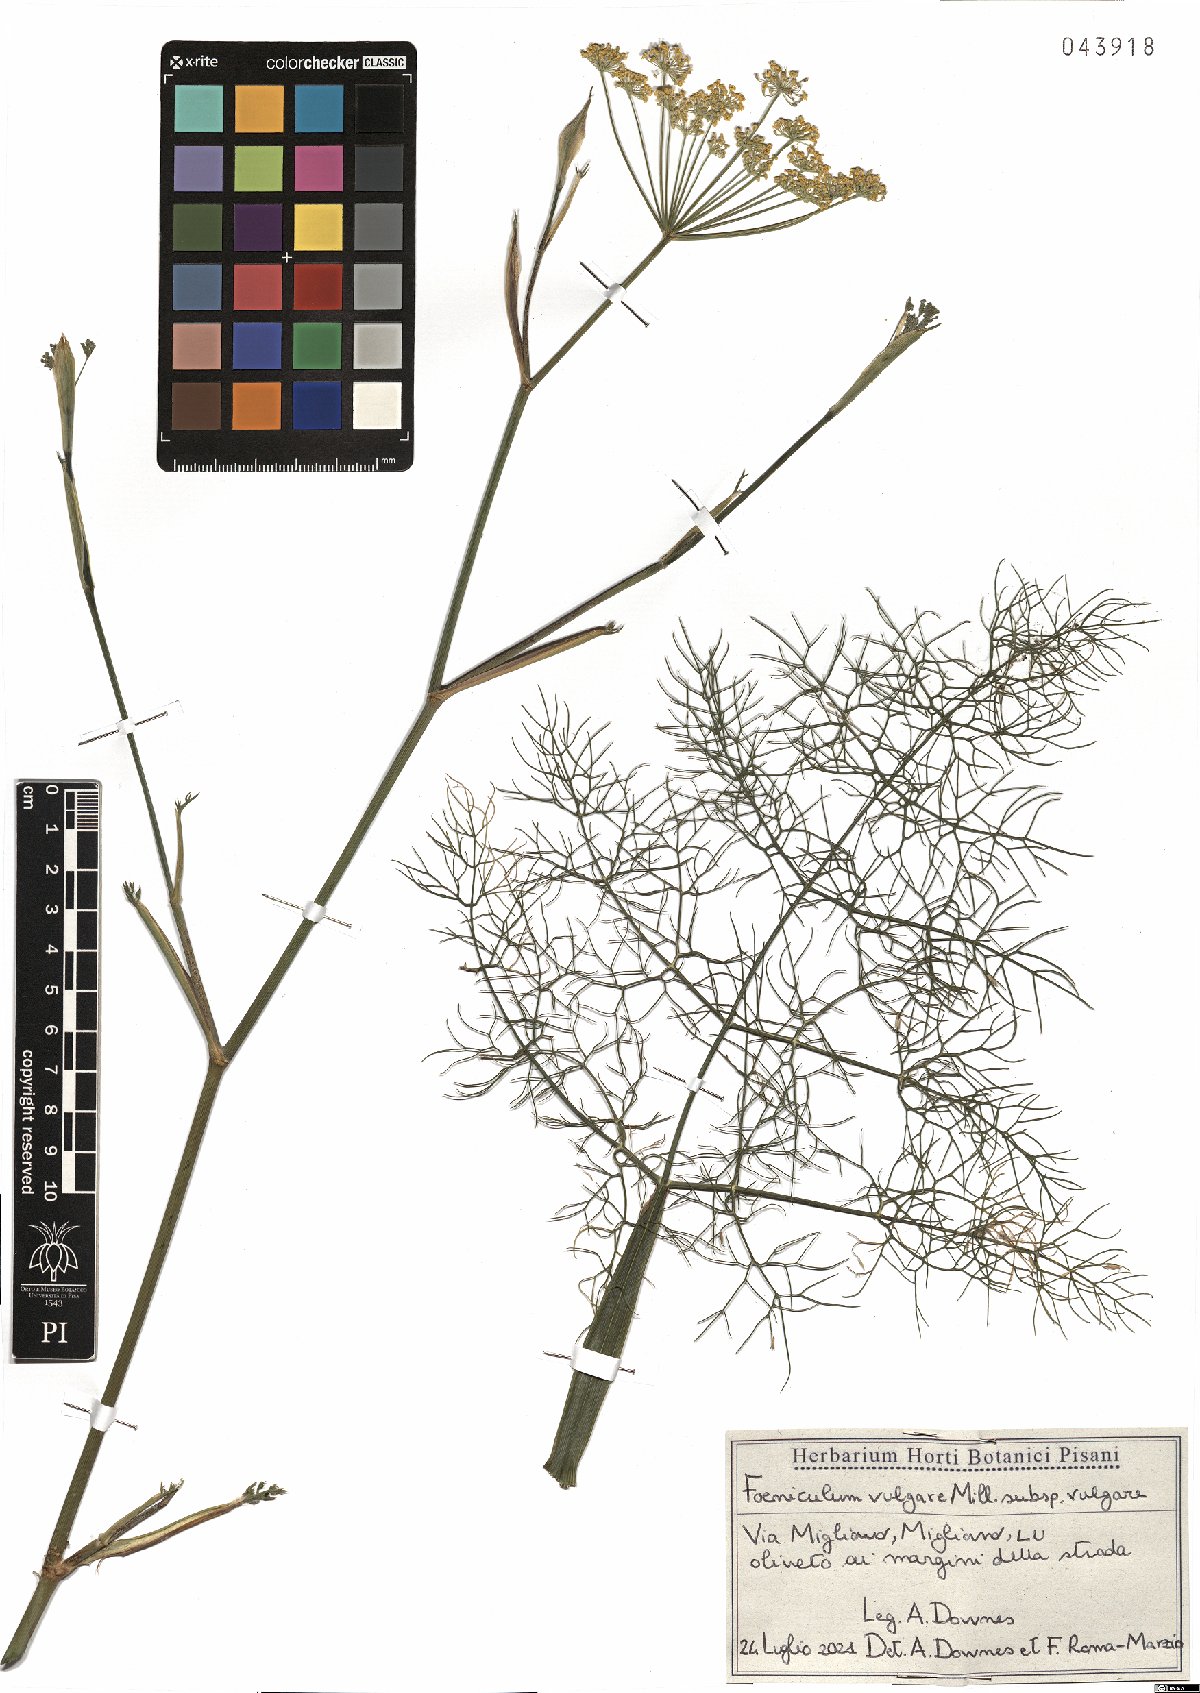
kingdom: Plantae
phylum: Tracheophyta
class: Magnoliopsida
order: Apiales
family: Apiaceae
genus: Foeniculum
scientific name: Foeniculum vulgare
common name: Fennel
